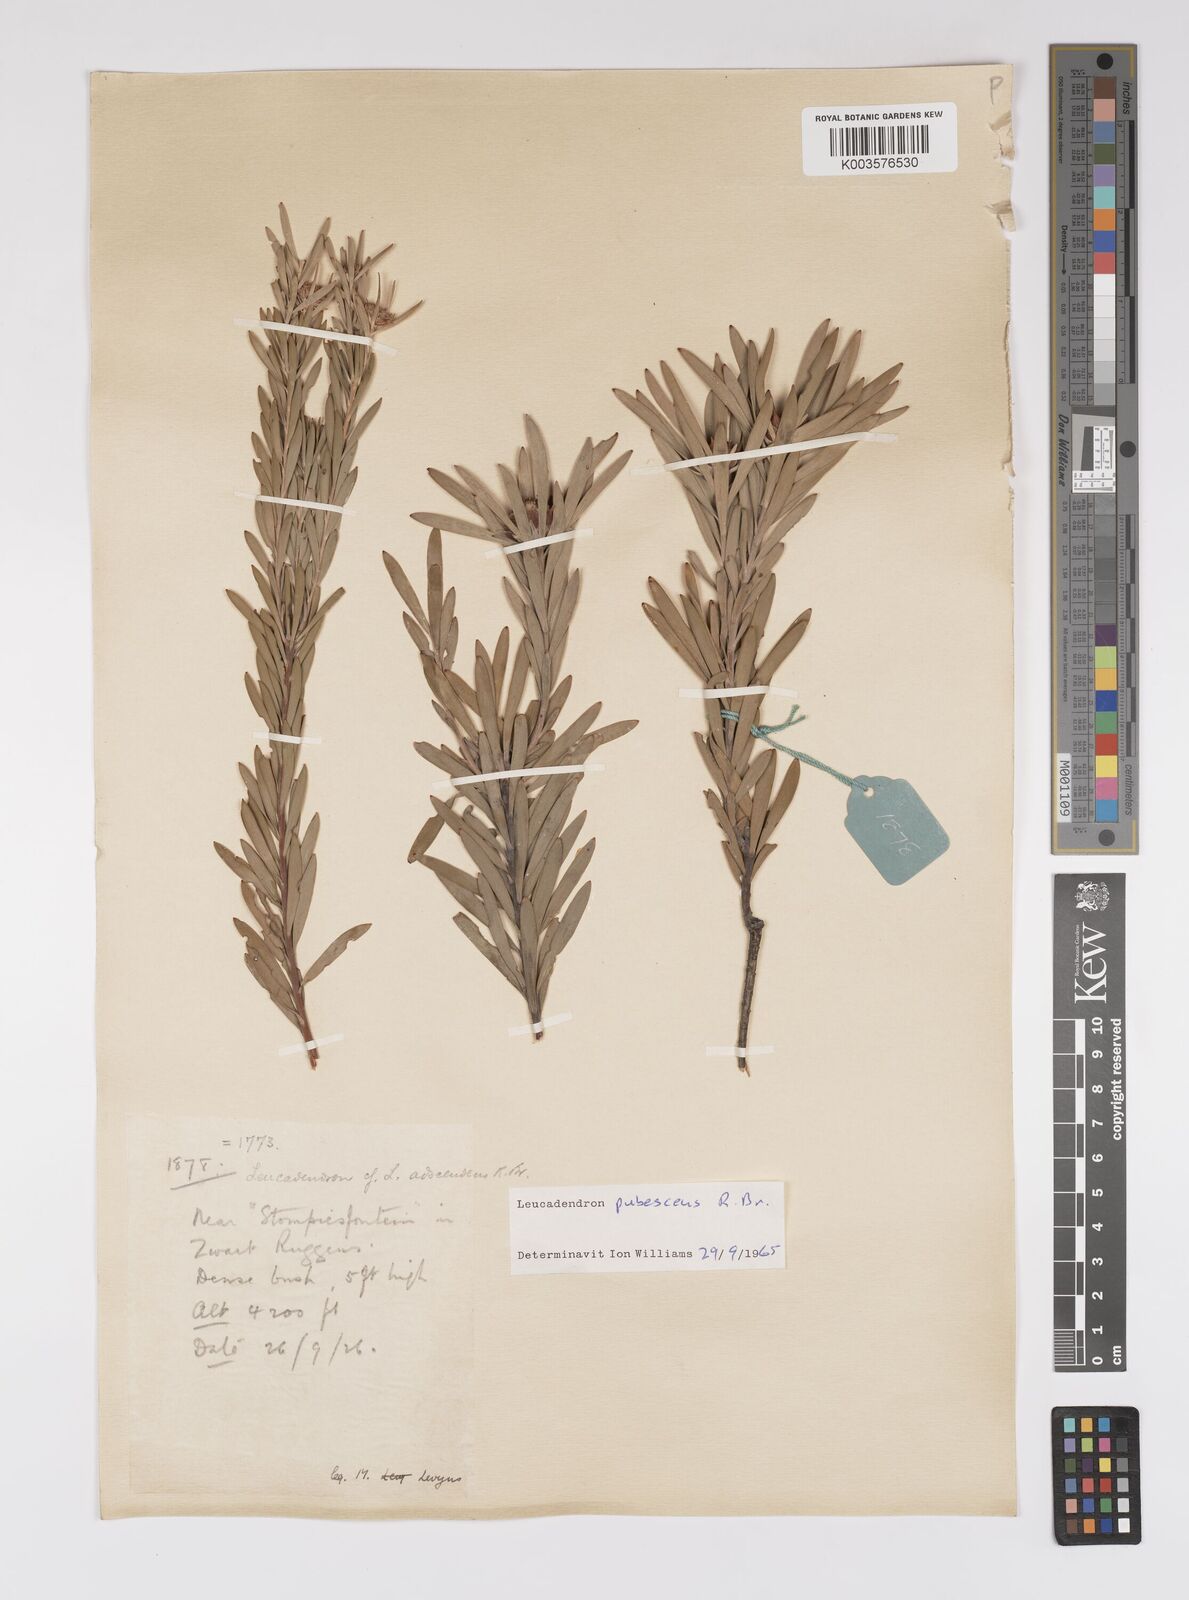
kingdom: Plantae
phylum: Tracheophyta
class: Magnoliopsida
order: Proteales
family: Proteaceae
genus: Leucadendron
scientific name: Leucadendron pubescens
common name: Grey conebush
